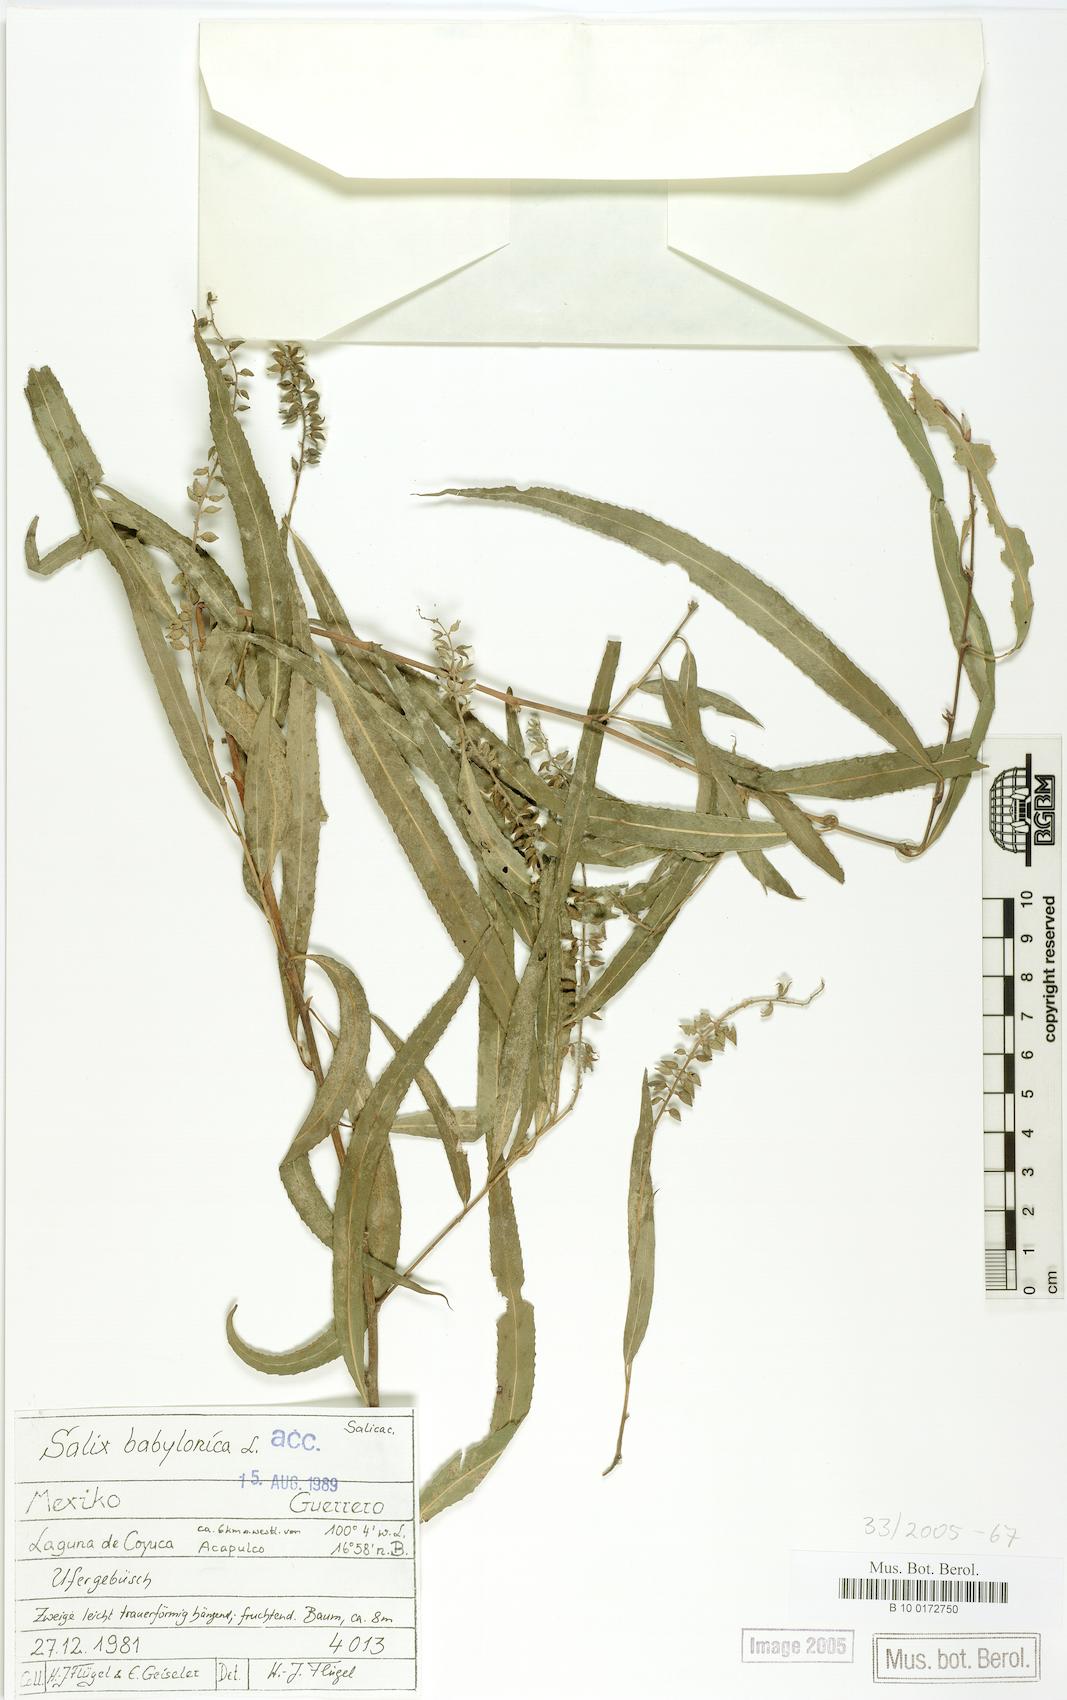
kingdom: Plantae
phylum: Tracheophyta
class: Magnoliopsida
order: Malpighiales
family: Salicaceae
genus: Salix
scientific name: Salix humboldtiana
